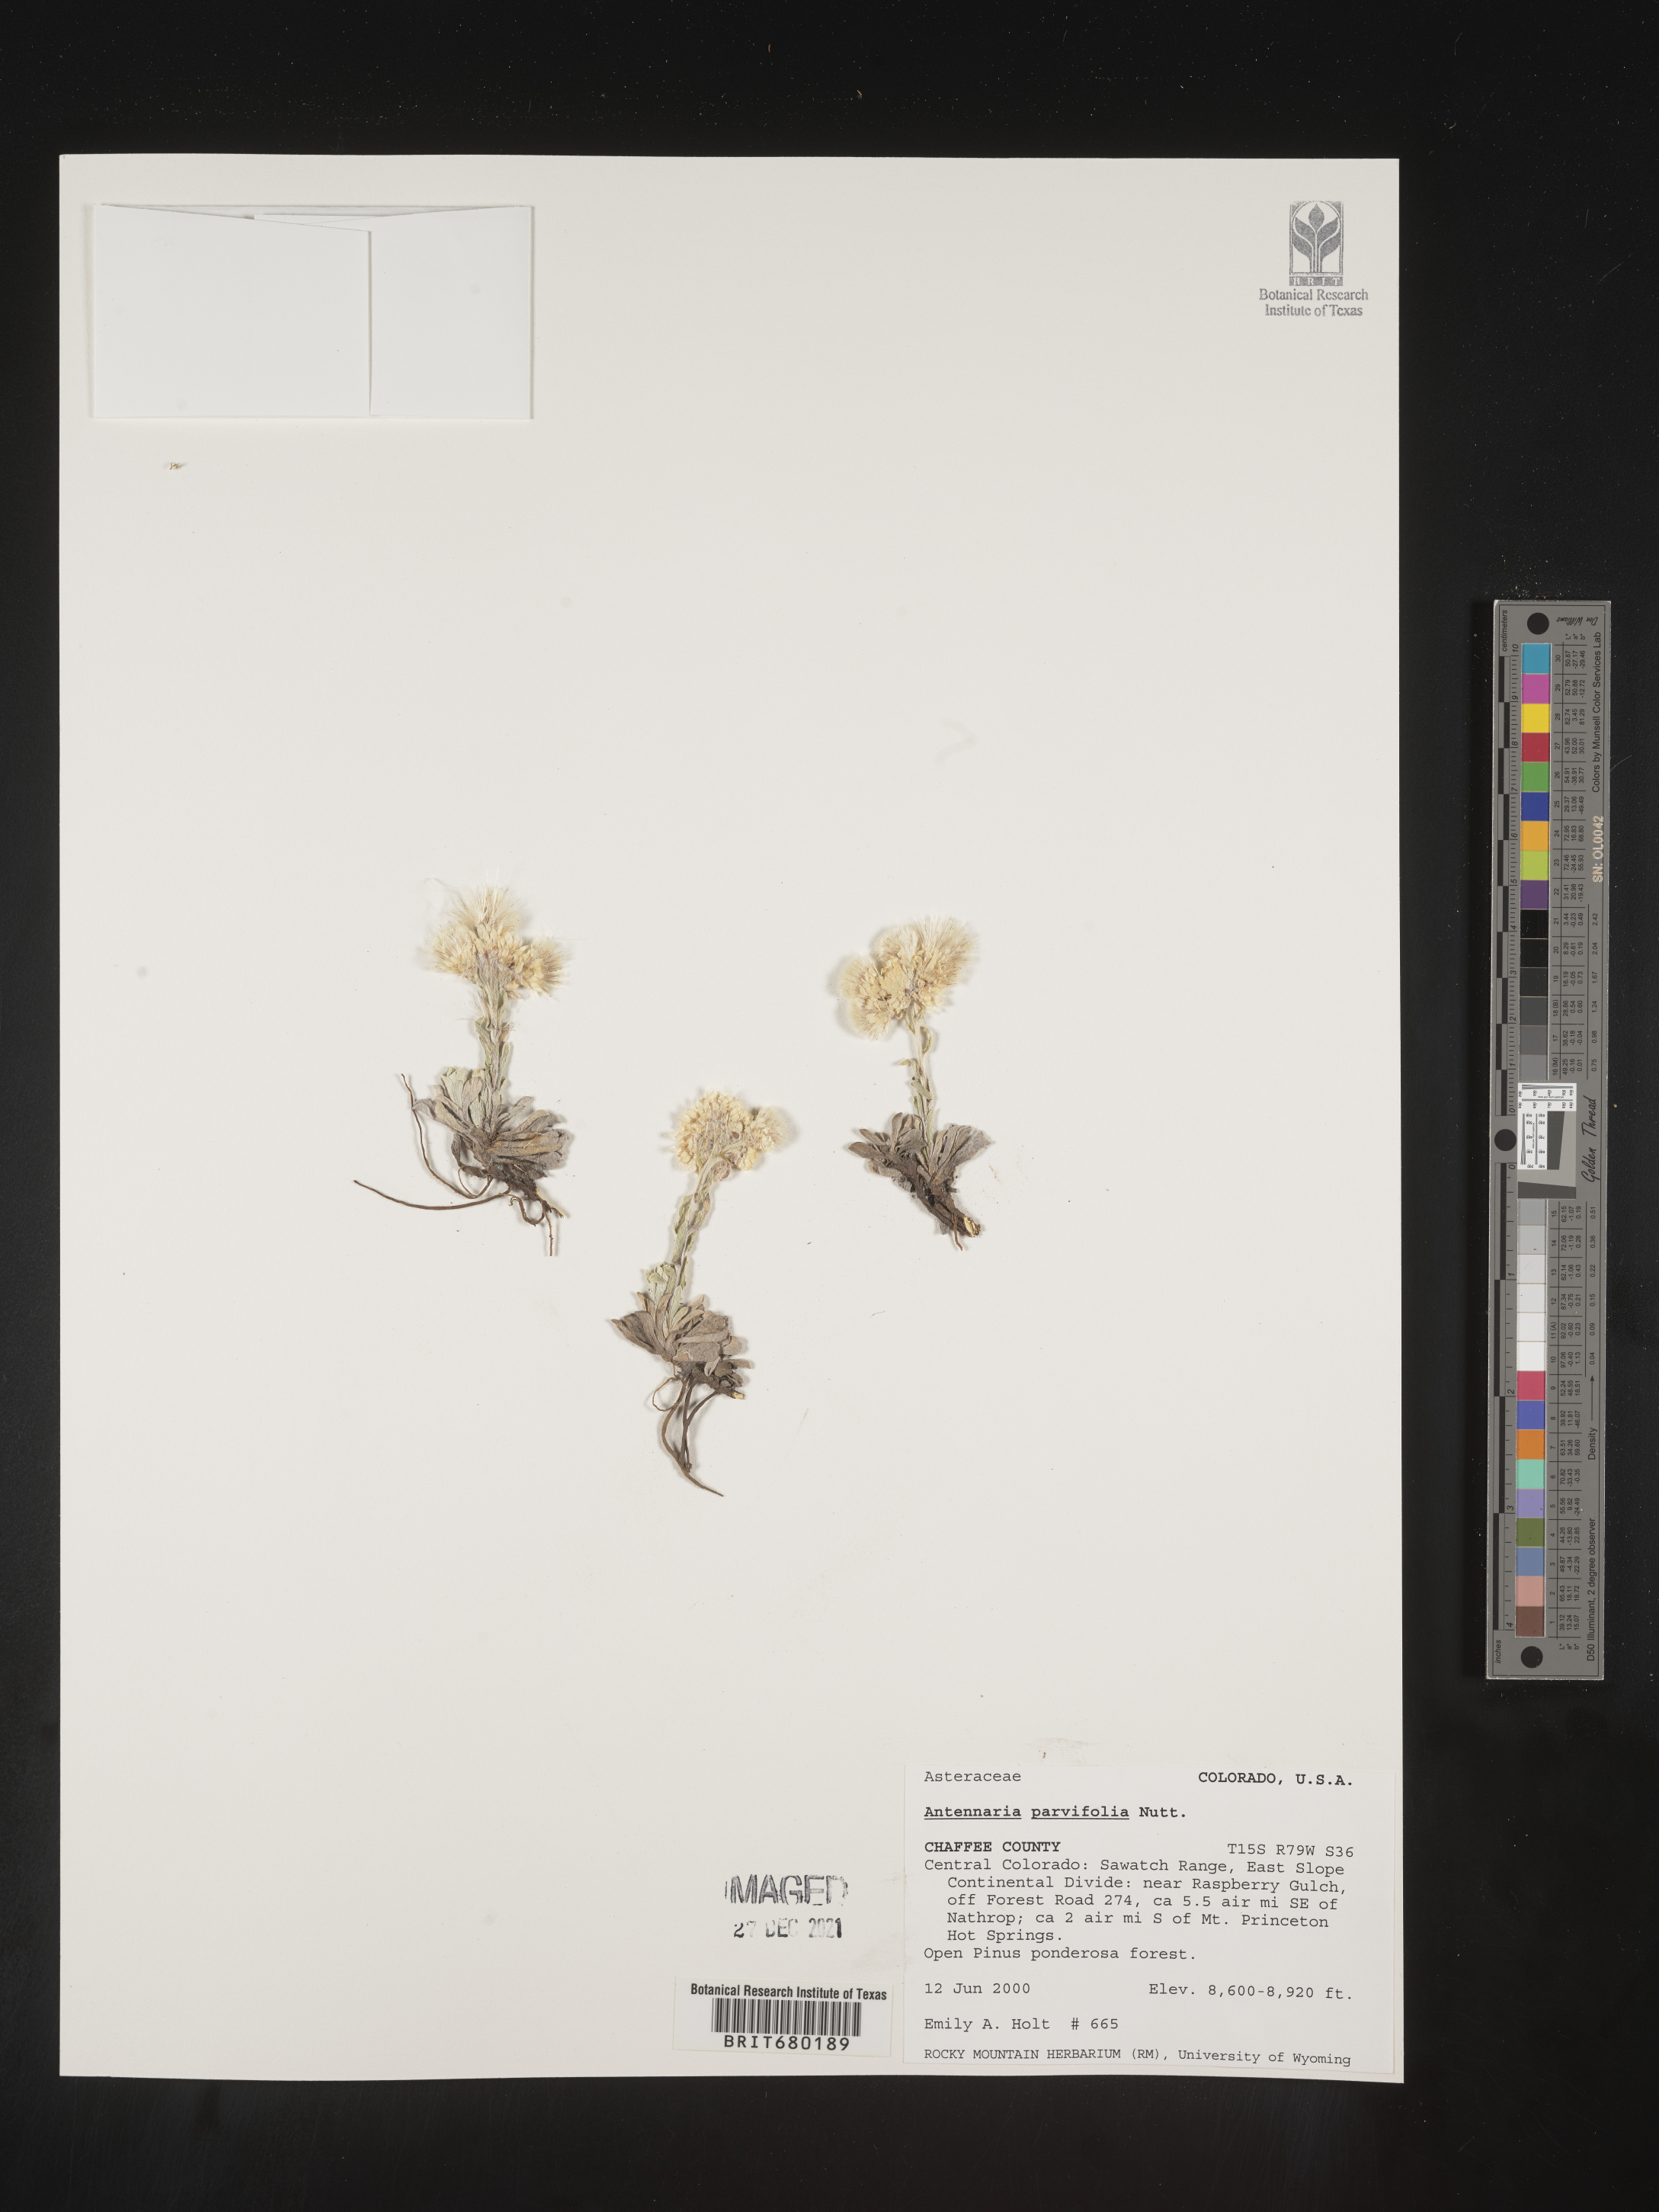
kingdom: Plantae
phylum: Tracheophyta
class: Magnoliopsida
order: Asterales
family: Asteraceae
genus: Antennaria
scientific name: Antennaria plantaginifolia
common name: Plantain-leaved pussytoes
